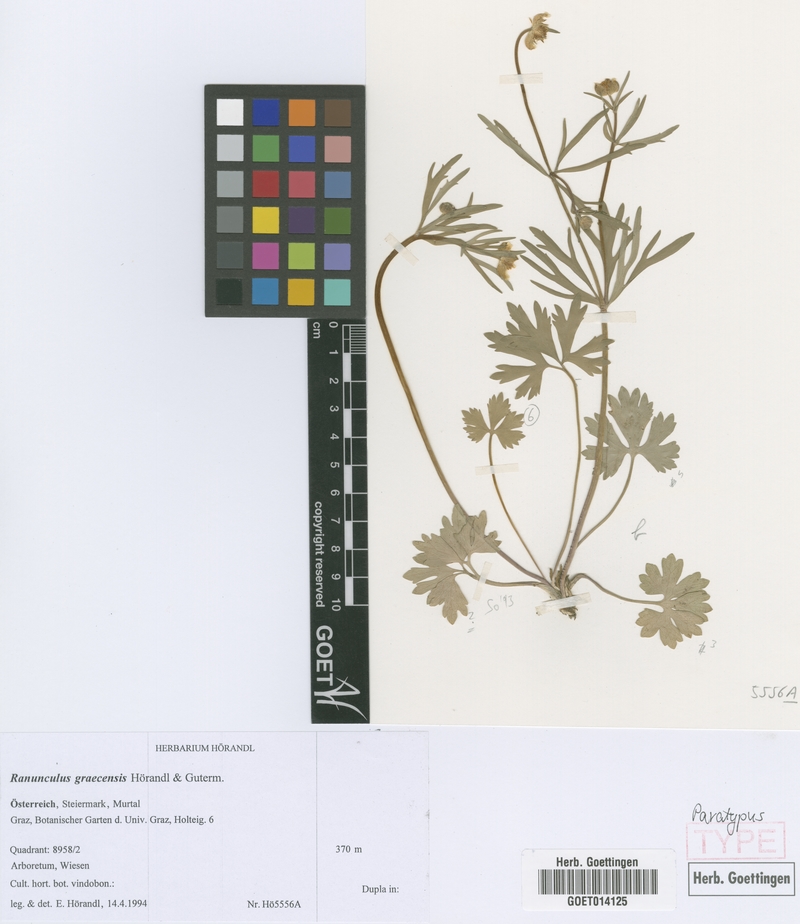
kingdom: Plantae
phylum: Tracheophyta
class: Magnoliopsida
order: Ranunculales
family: Ranunculaceae
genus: Ranunculus
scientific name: Ranunculus graecensis
